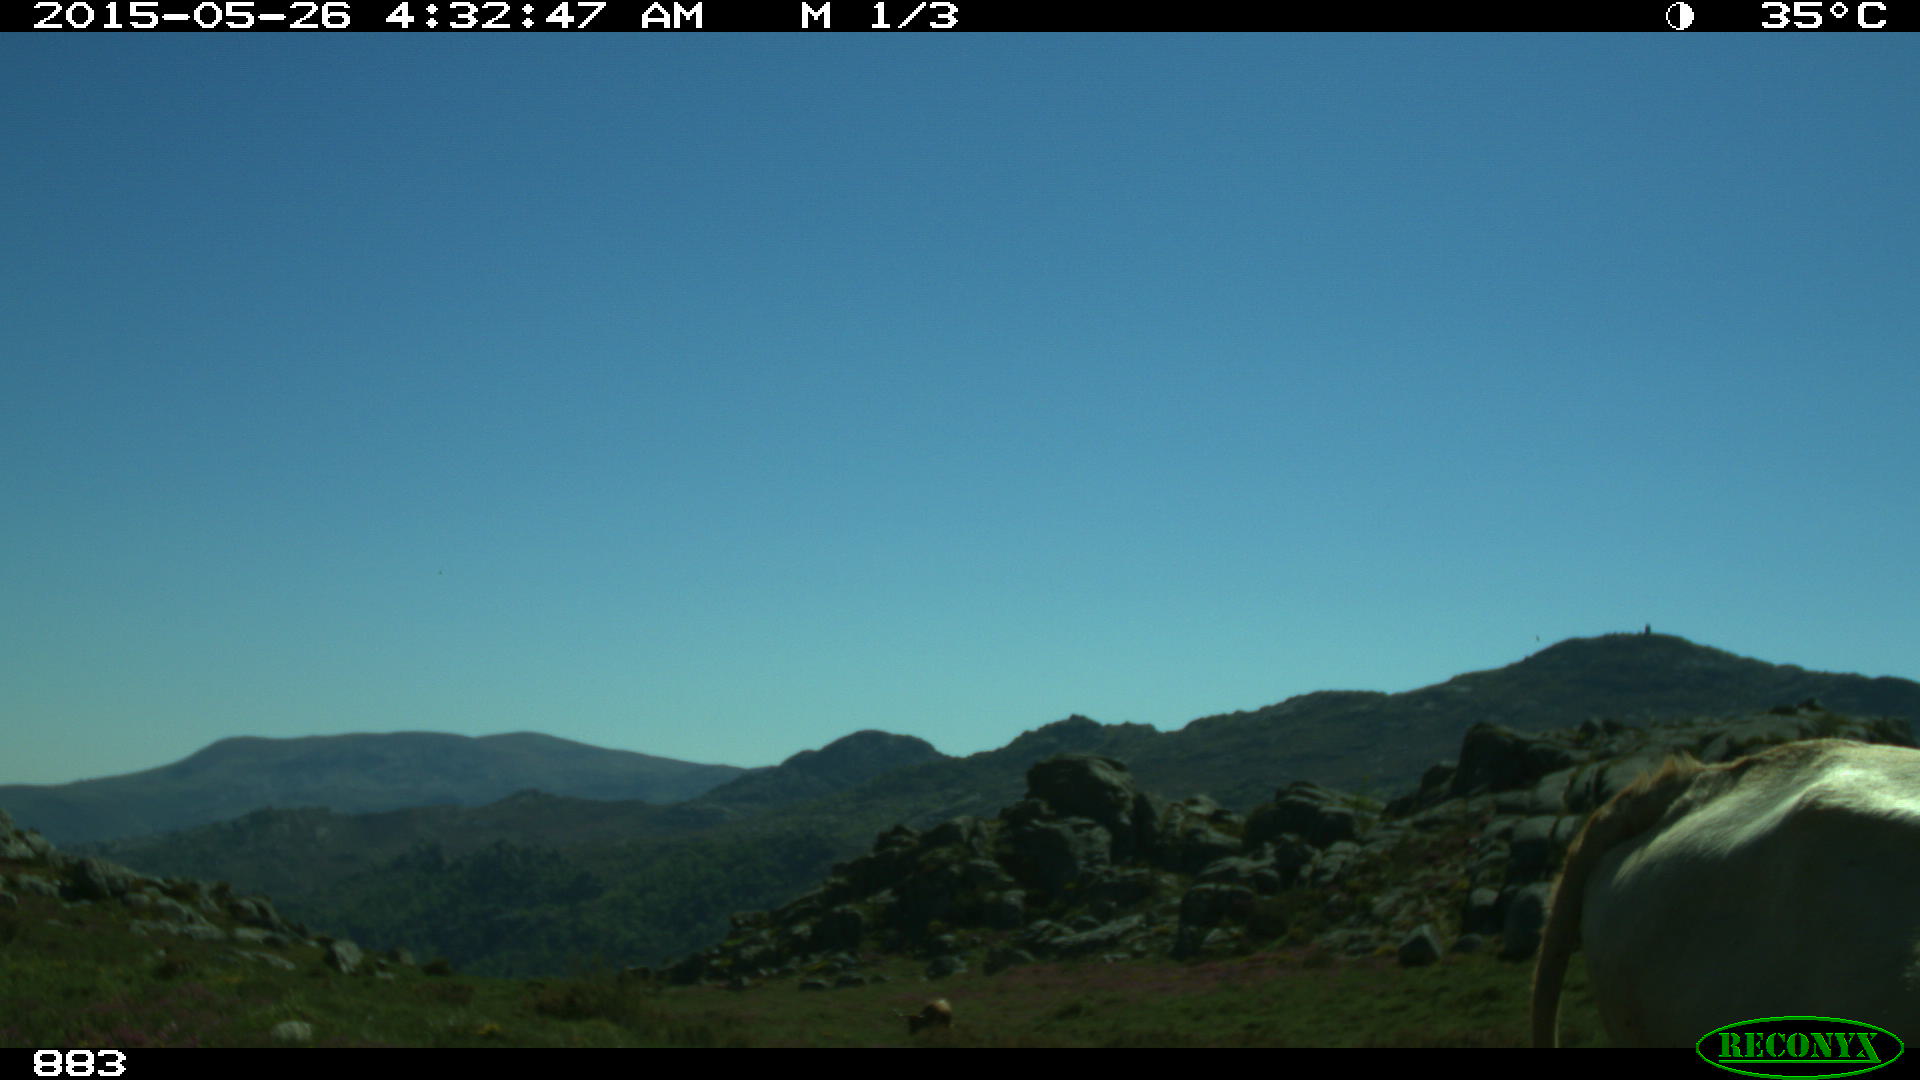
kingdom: Animalia
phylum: Chordata
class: Mammalia
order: Artiodactyla
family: Bovidae
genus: Bos
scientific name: Bos taurus
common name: Domesticated cattle
